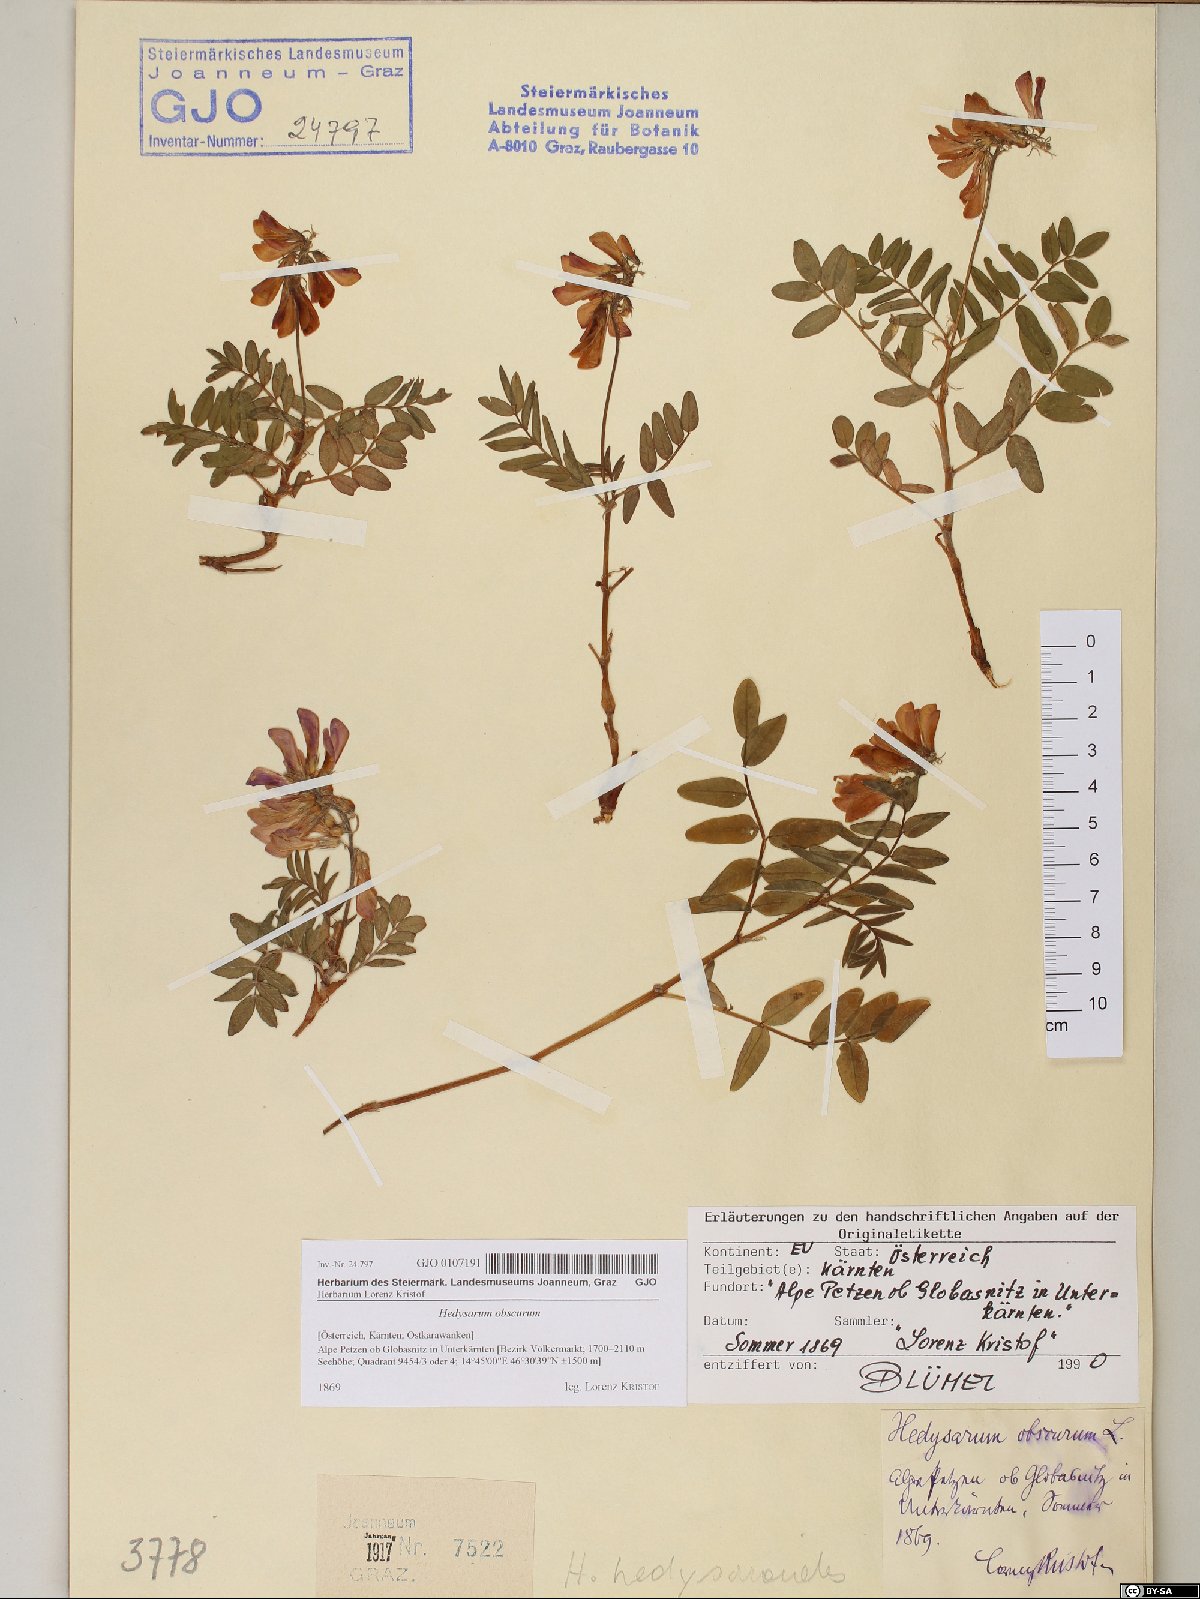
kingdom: Plantae
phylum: Tracheophyta
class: Magnoliopsida
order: Fabales
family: Fabaceae
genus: Hedysarum
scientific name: Hedysarum hedysaroides
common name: Alpine french-honeysuckle
